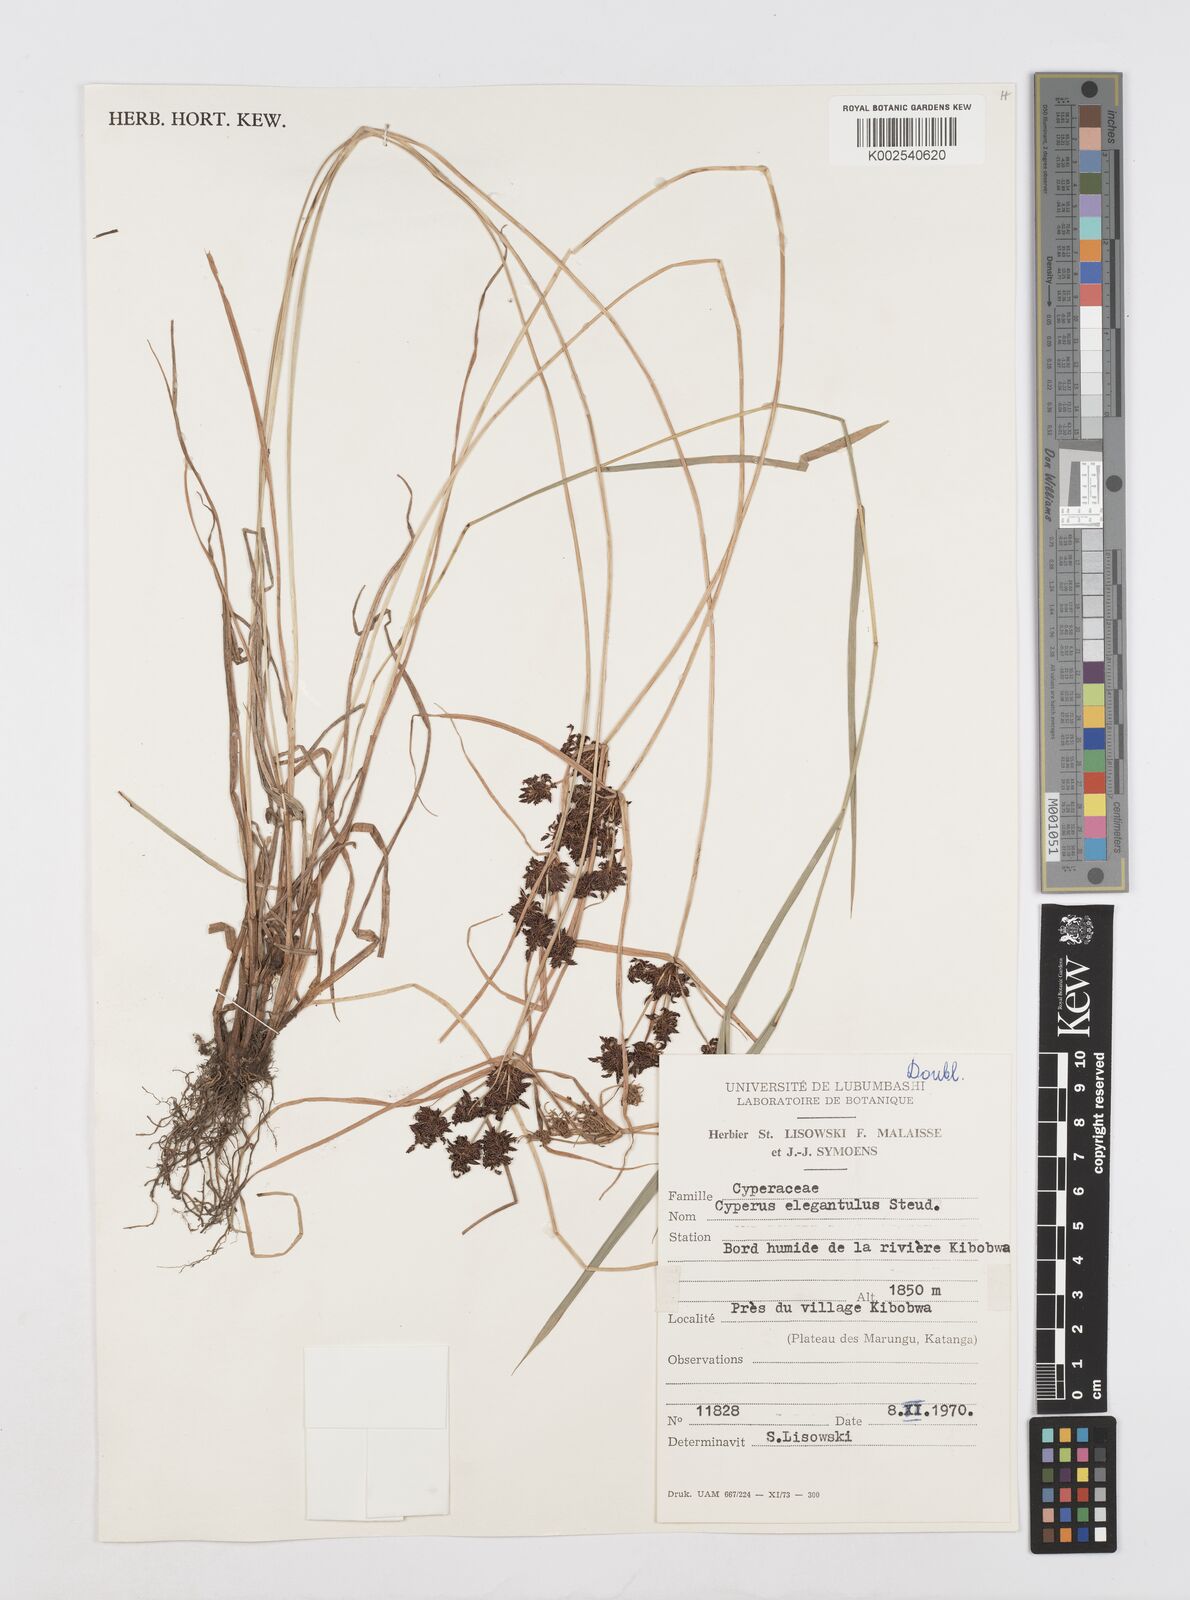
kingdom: Plantae
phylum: Tracheophyta
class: Liliopsida
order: Poales
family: Cyperaceae
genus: Cyperus
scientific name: Cyperus elegantulus
